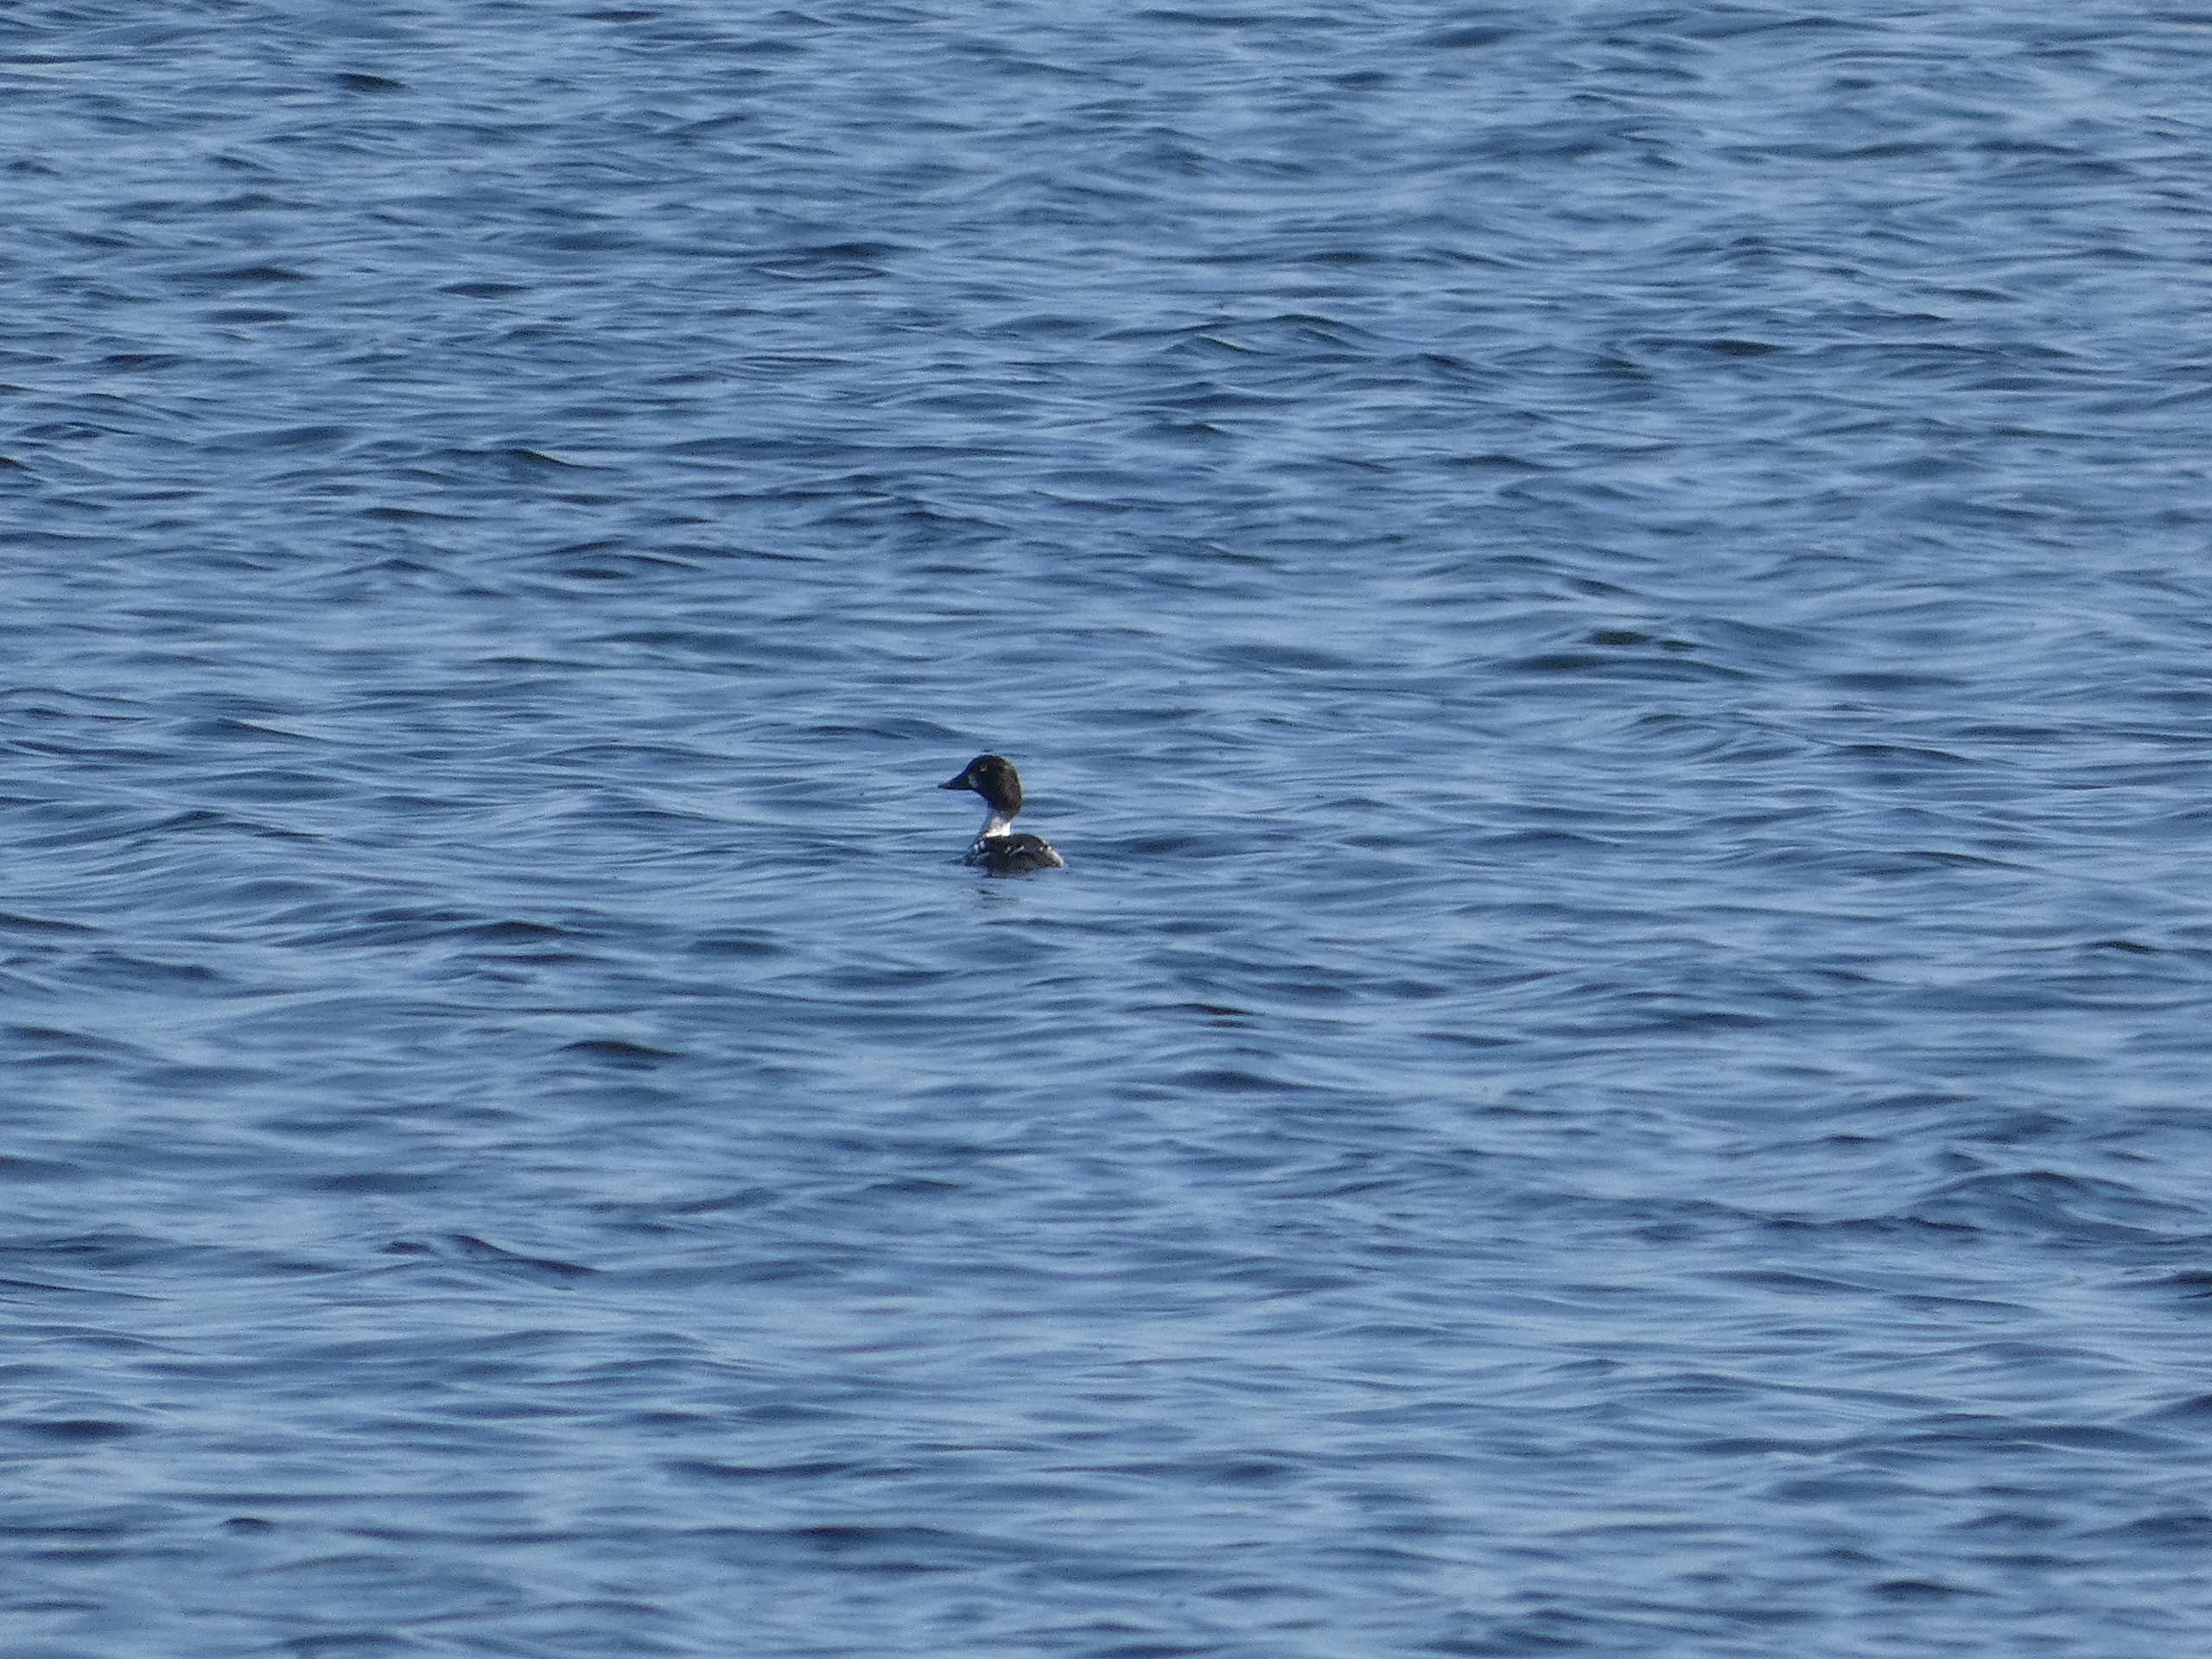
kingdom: Animalia
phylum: Chordata
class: Aves
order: Anseriformes
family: Anatidae
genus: Bucephala
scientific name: Bucephala clangula
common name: Hvinand
